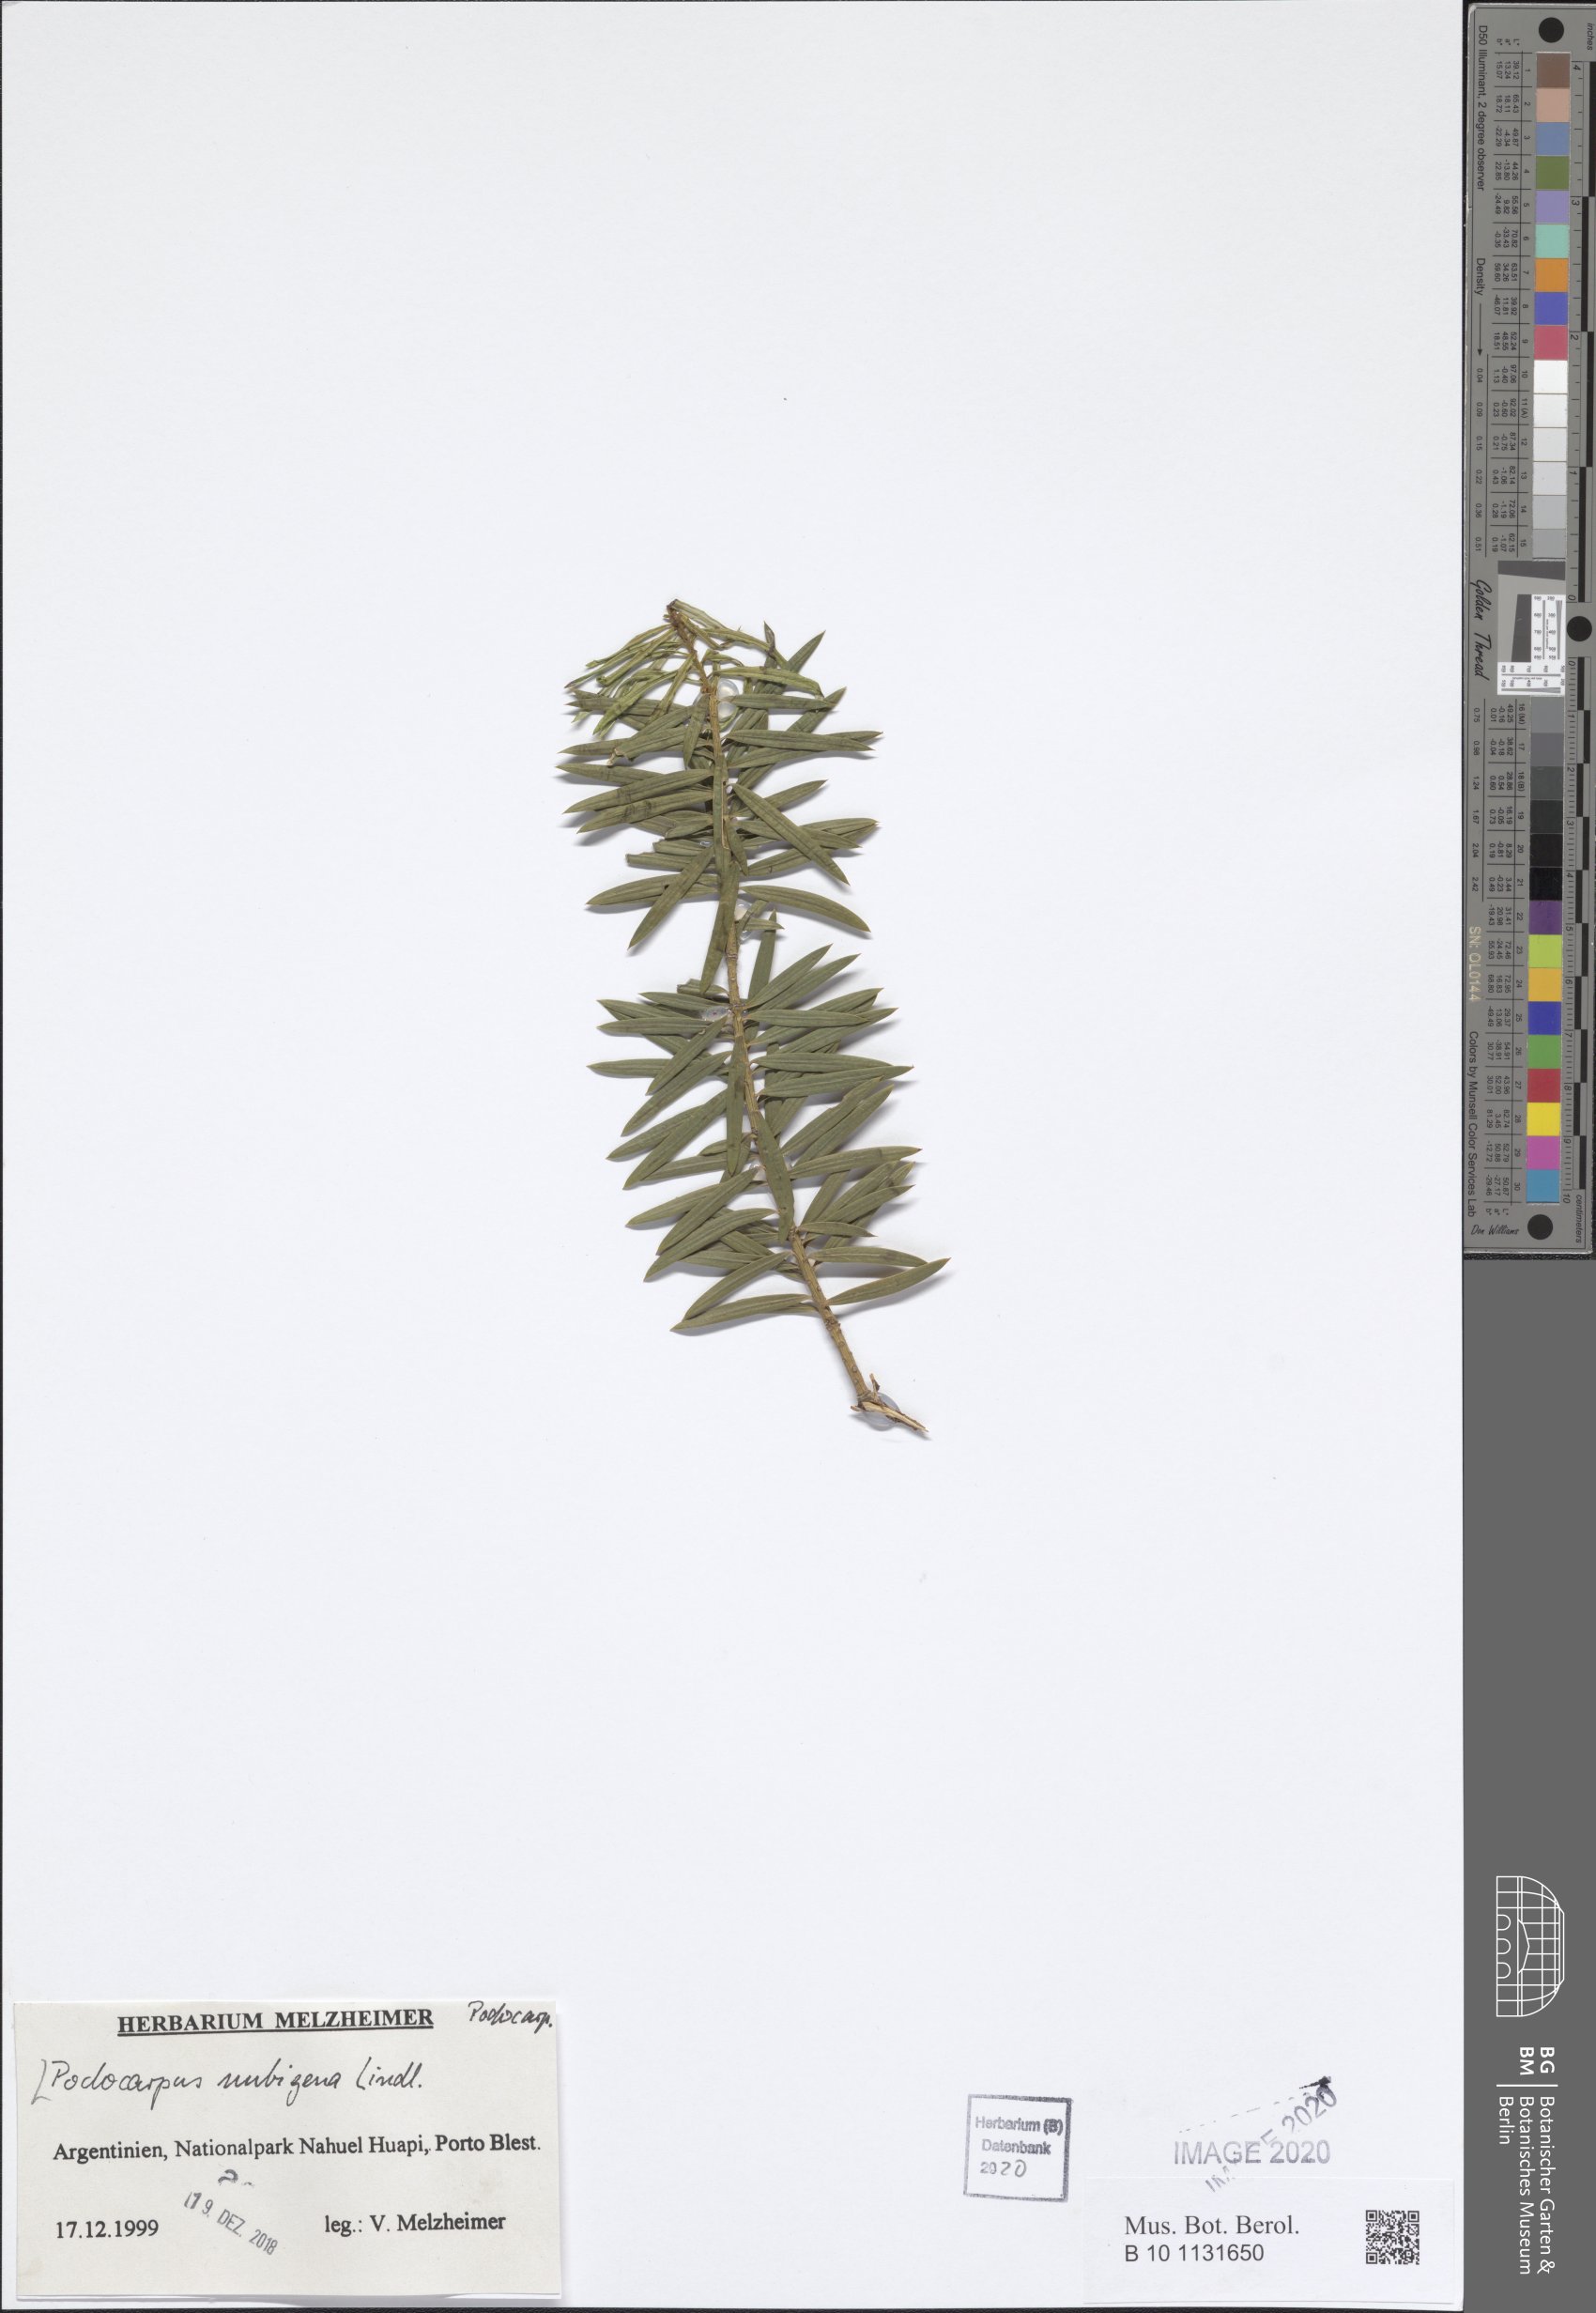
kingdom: Plantae
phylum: Tracheophyta
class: Pinopsida
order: Pinales
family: Podocarpaceae
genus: Podocarpus
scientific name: Podocarpus nubigenus
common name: Cloud podocarp
